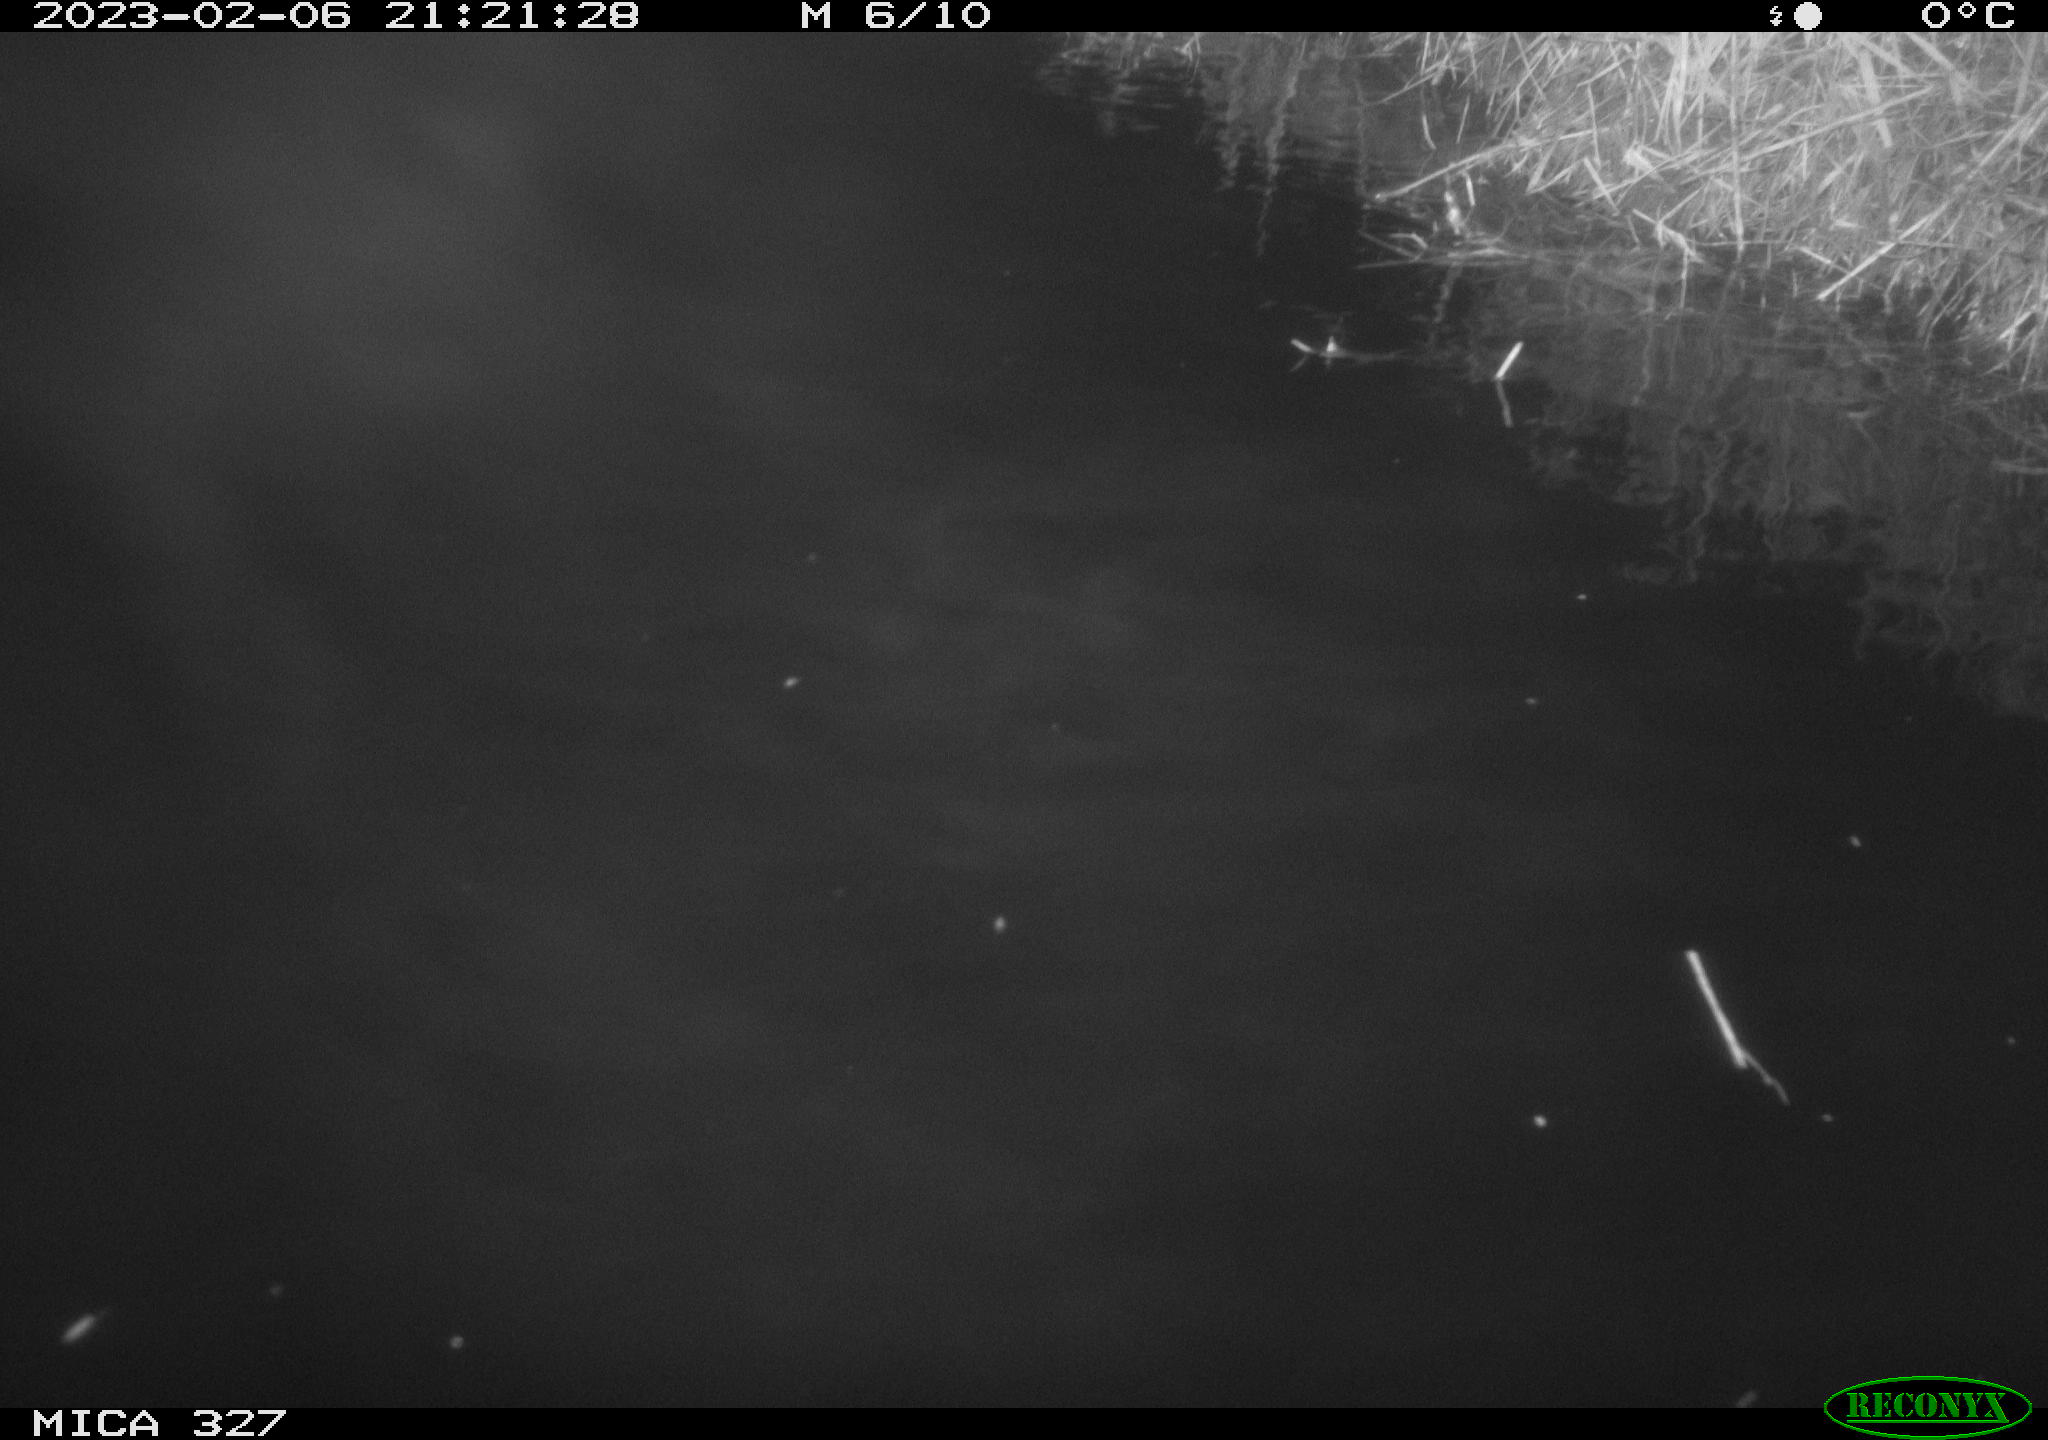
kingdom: Animalia
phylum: Chordata
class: Mammalia
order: Rodentia
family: Cricetidae
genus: Ondatra
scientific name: Ondatra zibethicus
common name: Muskrat
